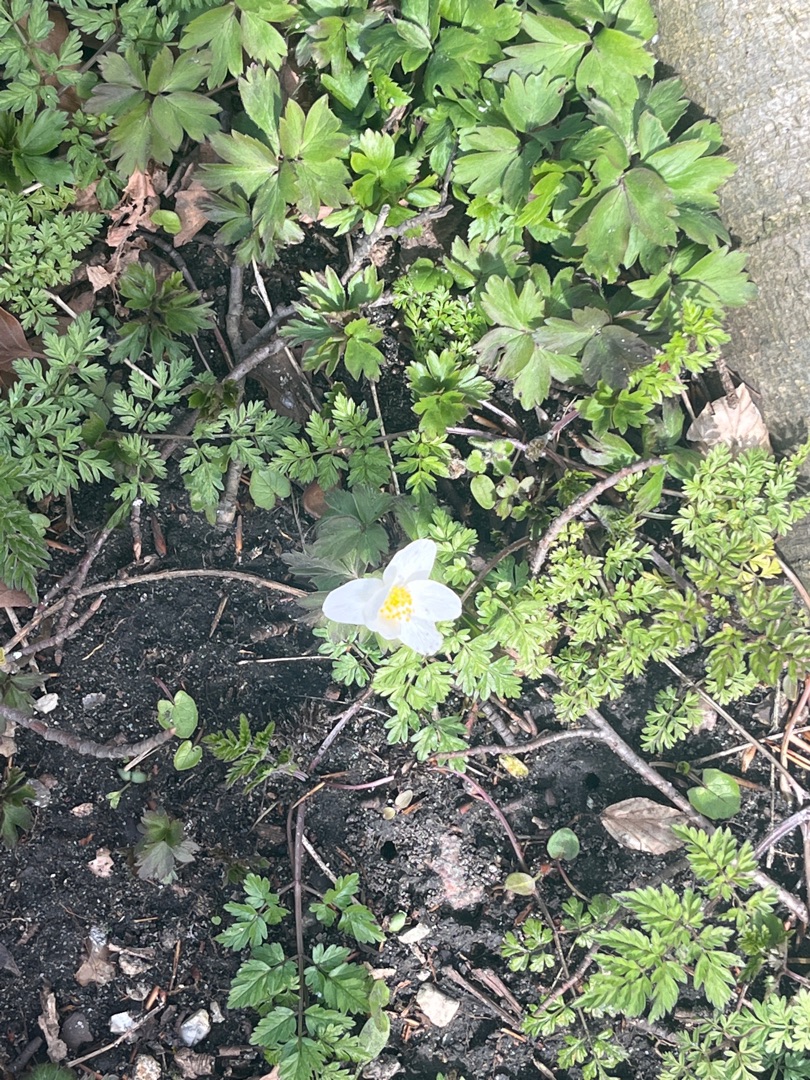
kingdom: Plantae
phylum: Tracheophyta
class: Magnoliopsida
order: Ranunculales
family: Ranunculaceae
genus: Anemone
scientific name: Anemone nemorosa
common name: Hvid anemone
